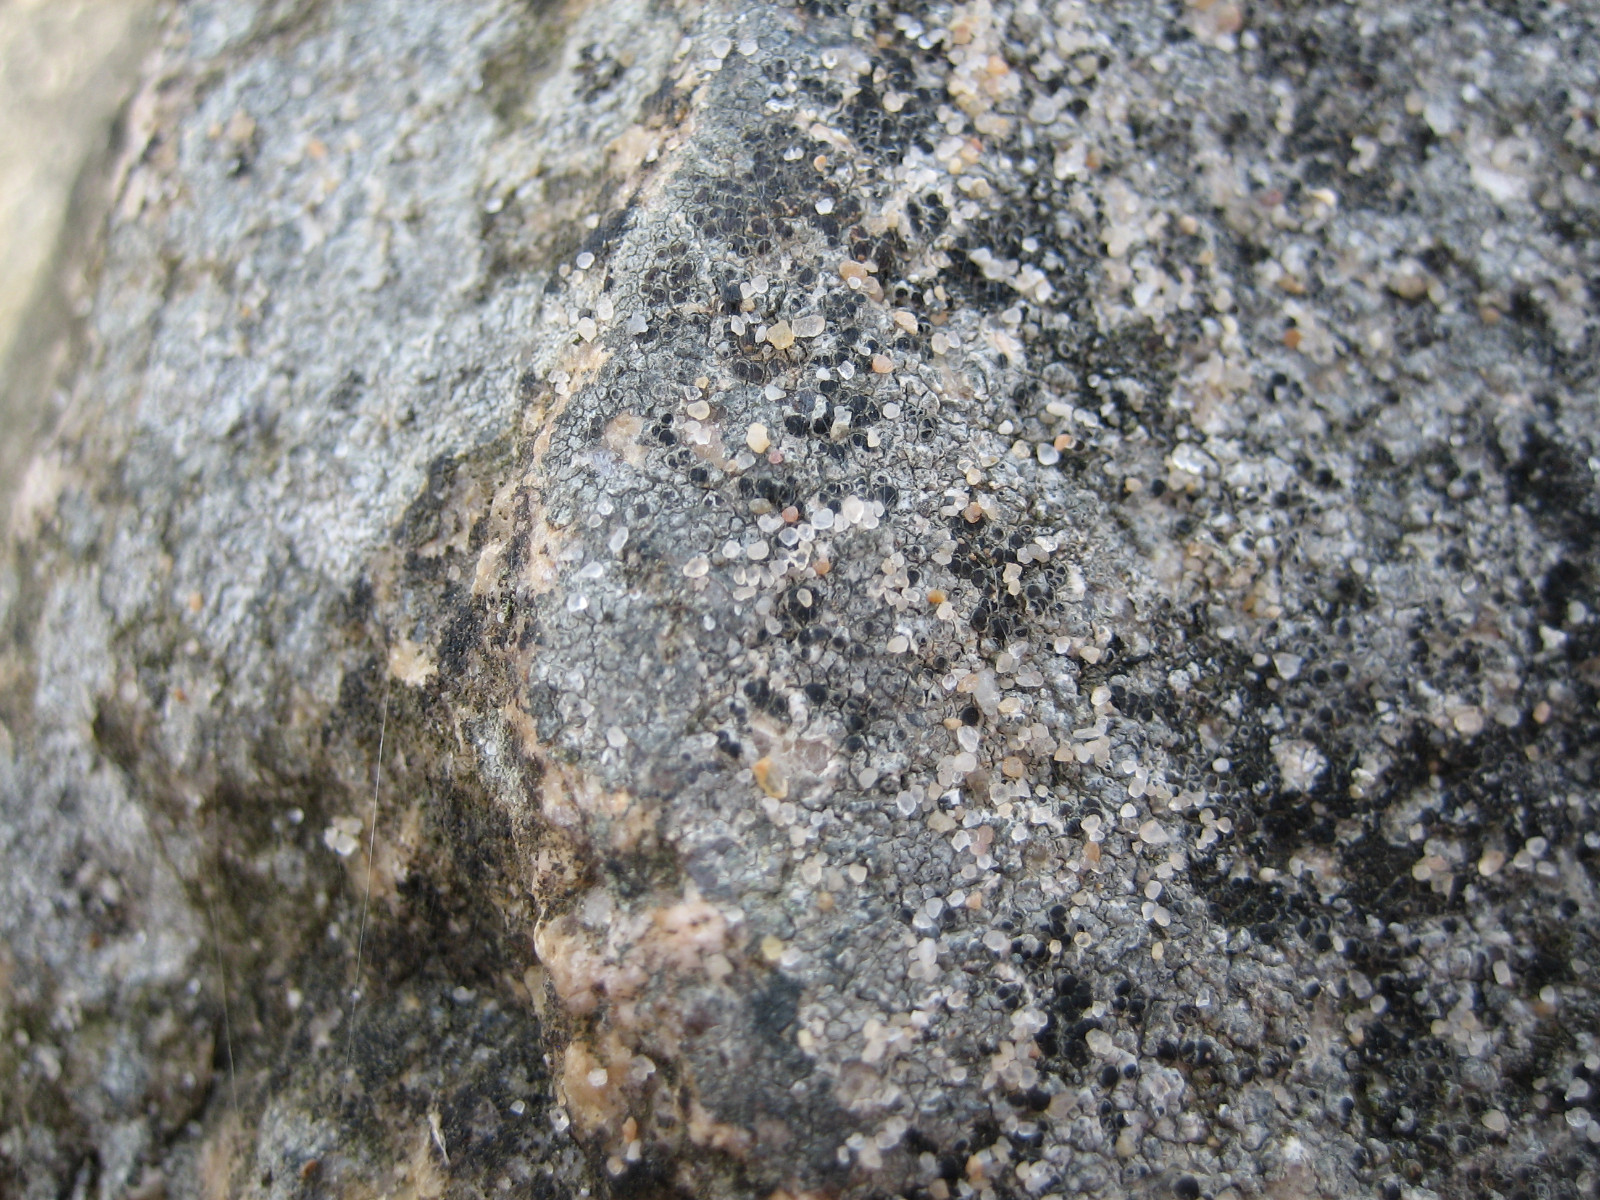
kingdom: Fungi
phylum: Ascomycota
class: Lecanoromycetes
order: Lecanorales
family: Lecanoraceae
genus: Lecanora
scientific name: Lecanora helicopis
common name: salt-kantskivelav
